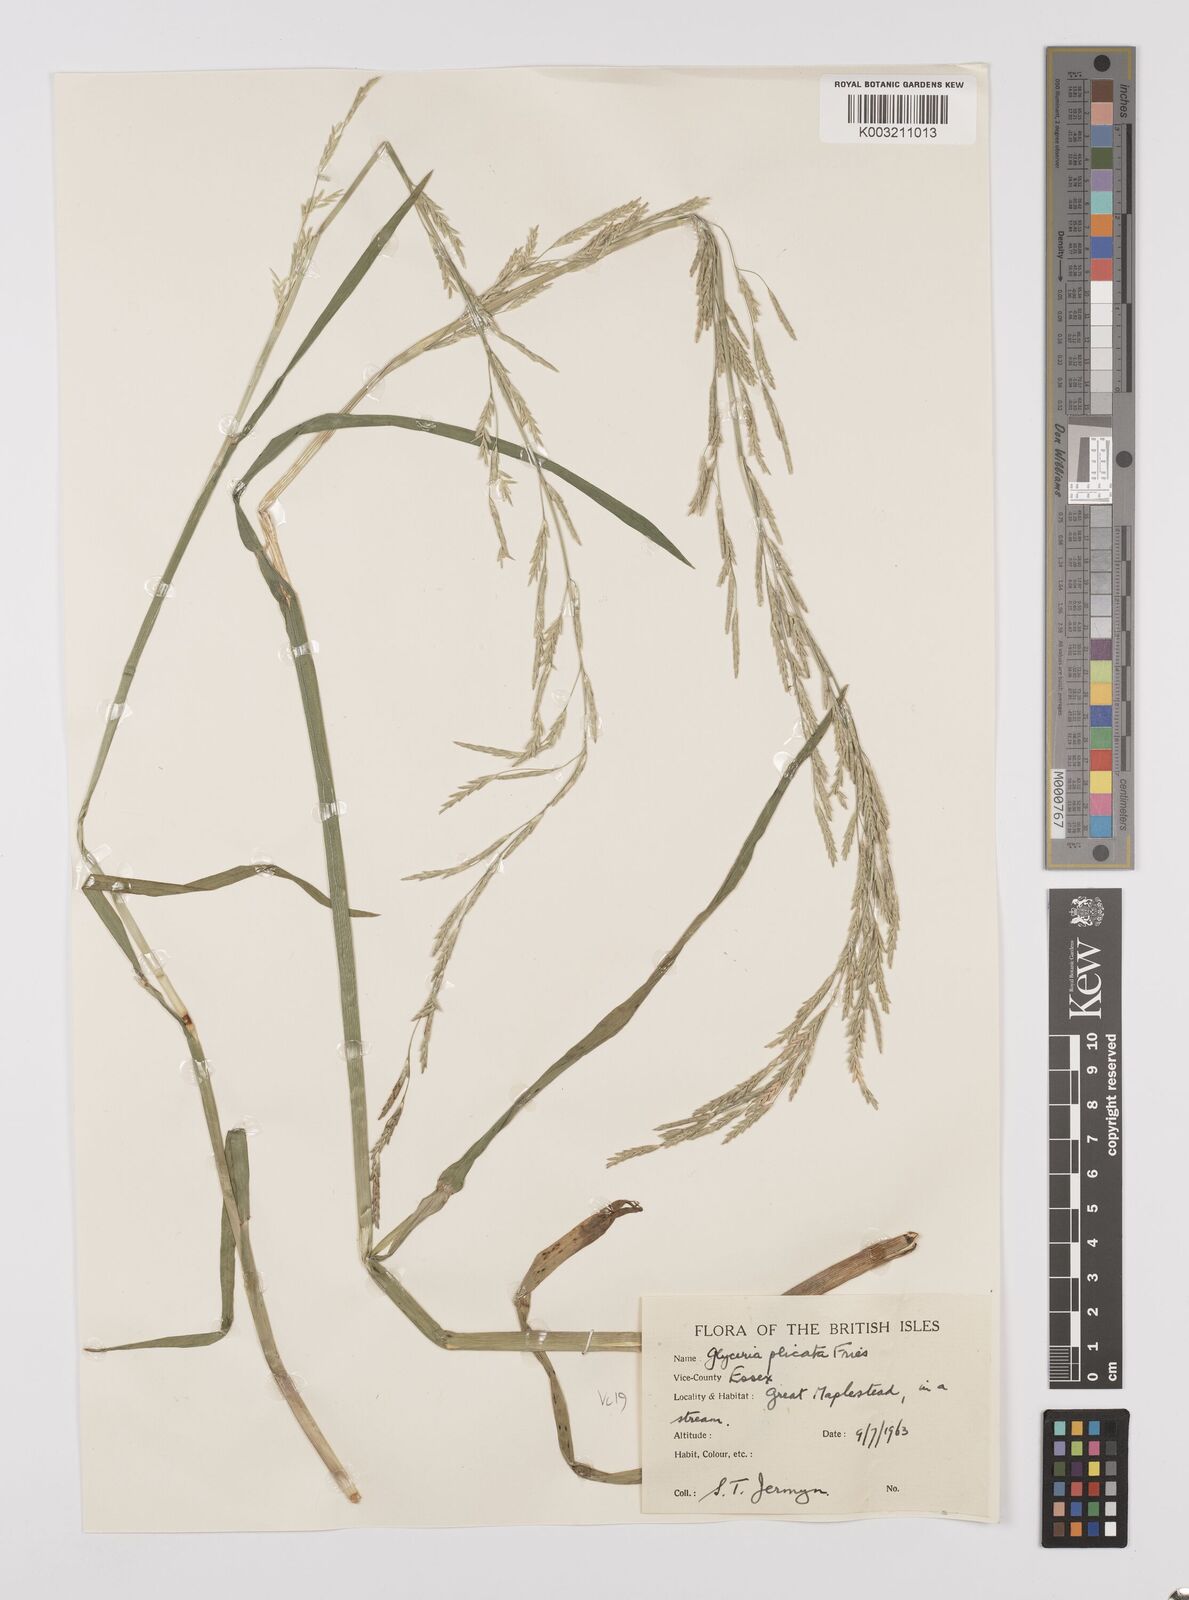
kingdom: Plantae
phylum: Tracheophyta
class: Liliopsida
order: Poales
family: Poaceae
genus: Glyceria
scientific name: Glyceria notata
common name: Plicate sweet-grass
